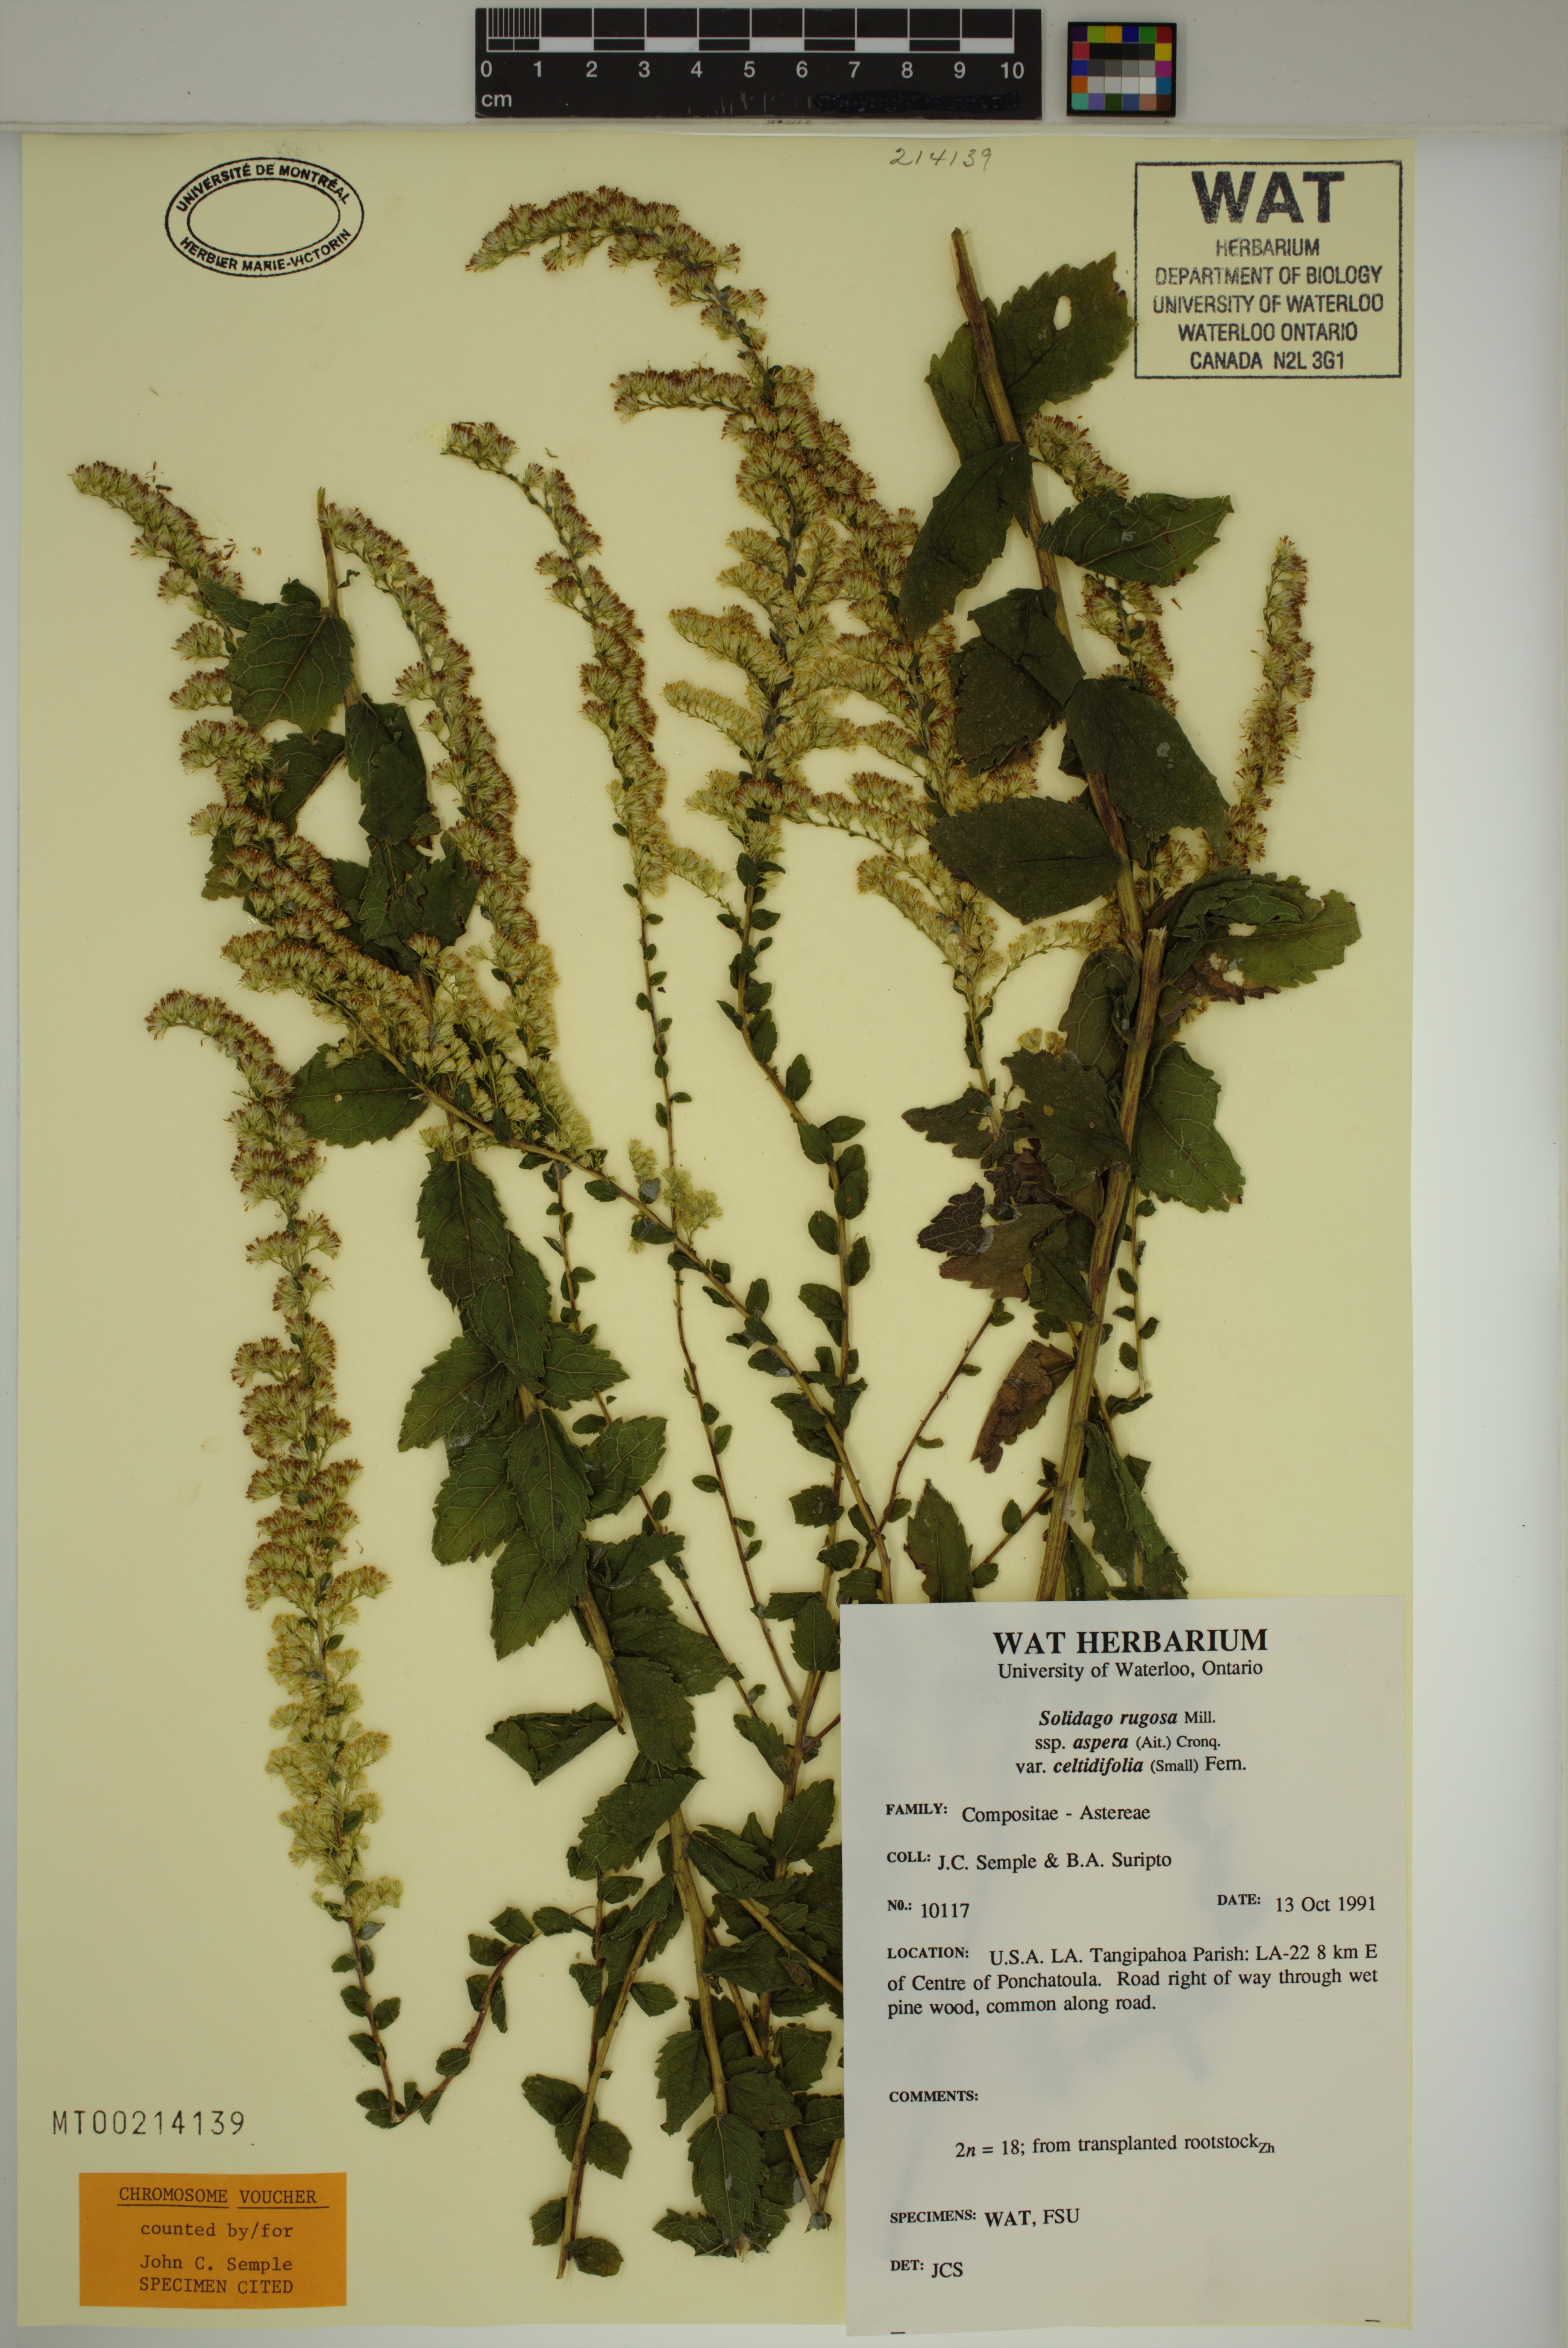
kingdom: Plantae
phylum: Tracheophyta
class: Magnoliopsida
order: Asterales
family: Asteraceae
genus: Solidago
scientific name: Solidago rugosa
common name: Rough-stemmed goldenrod
